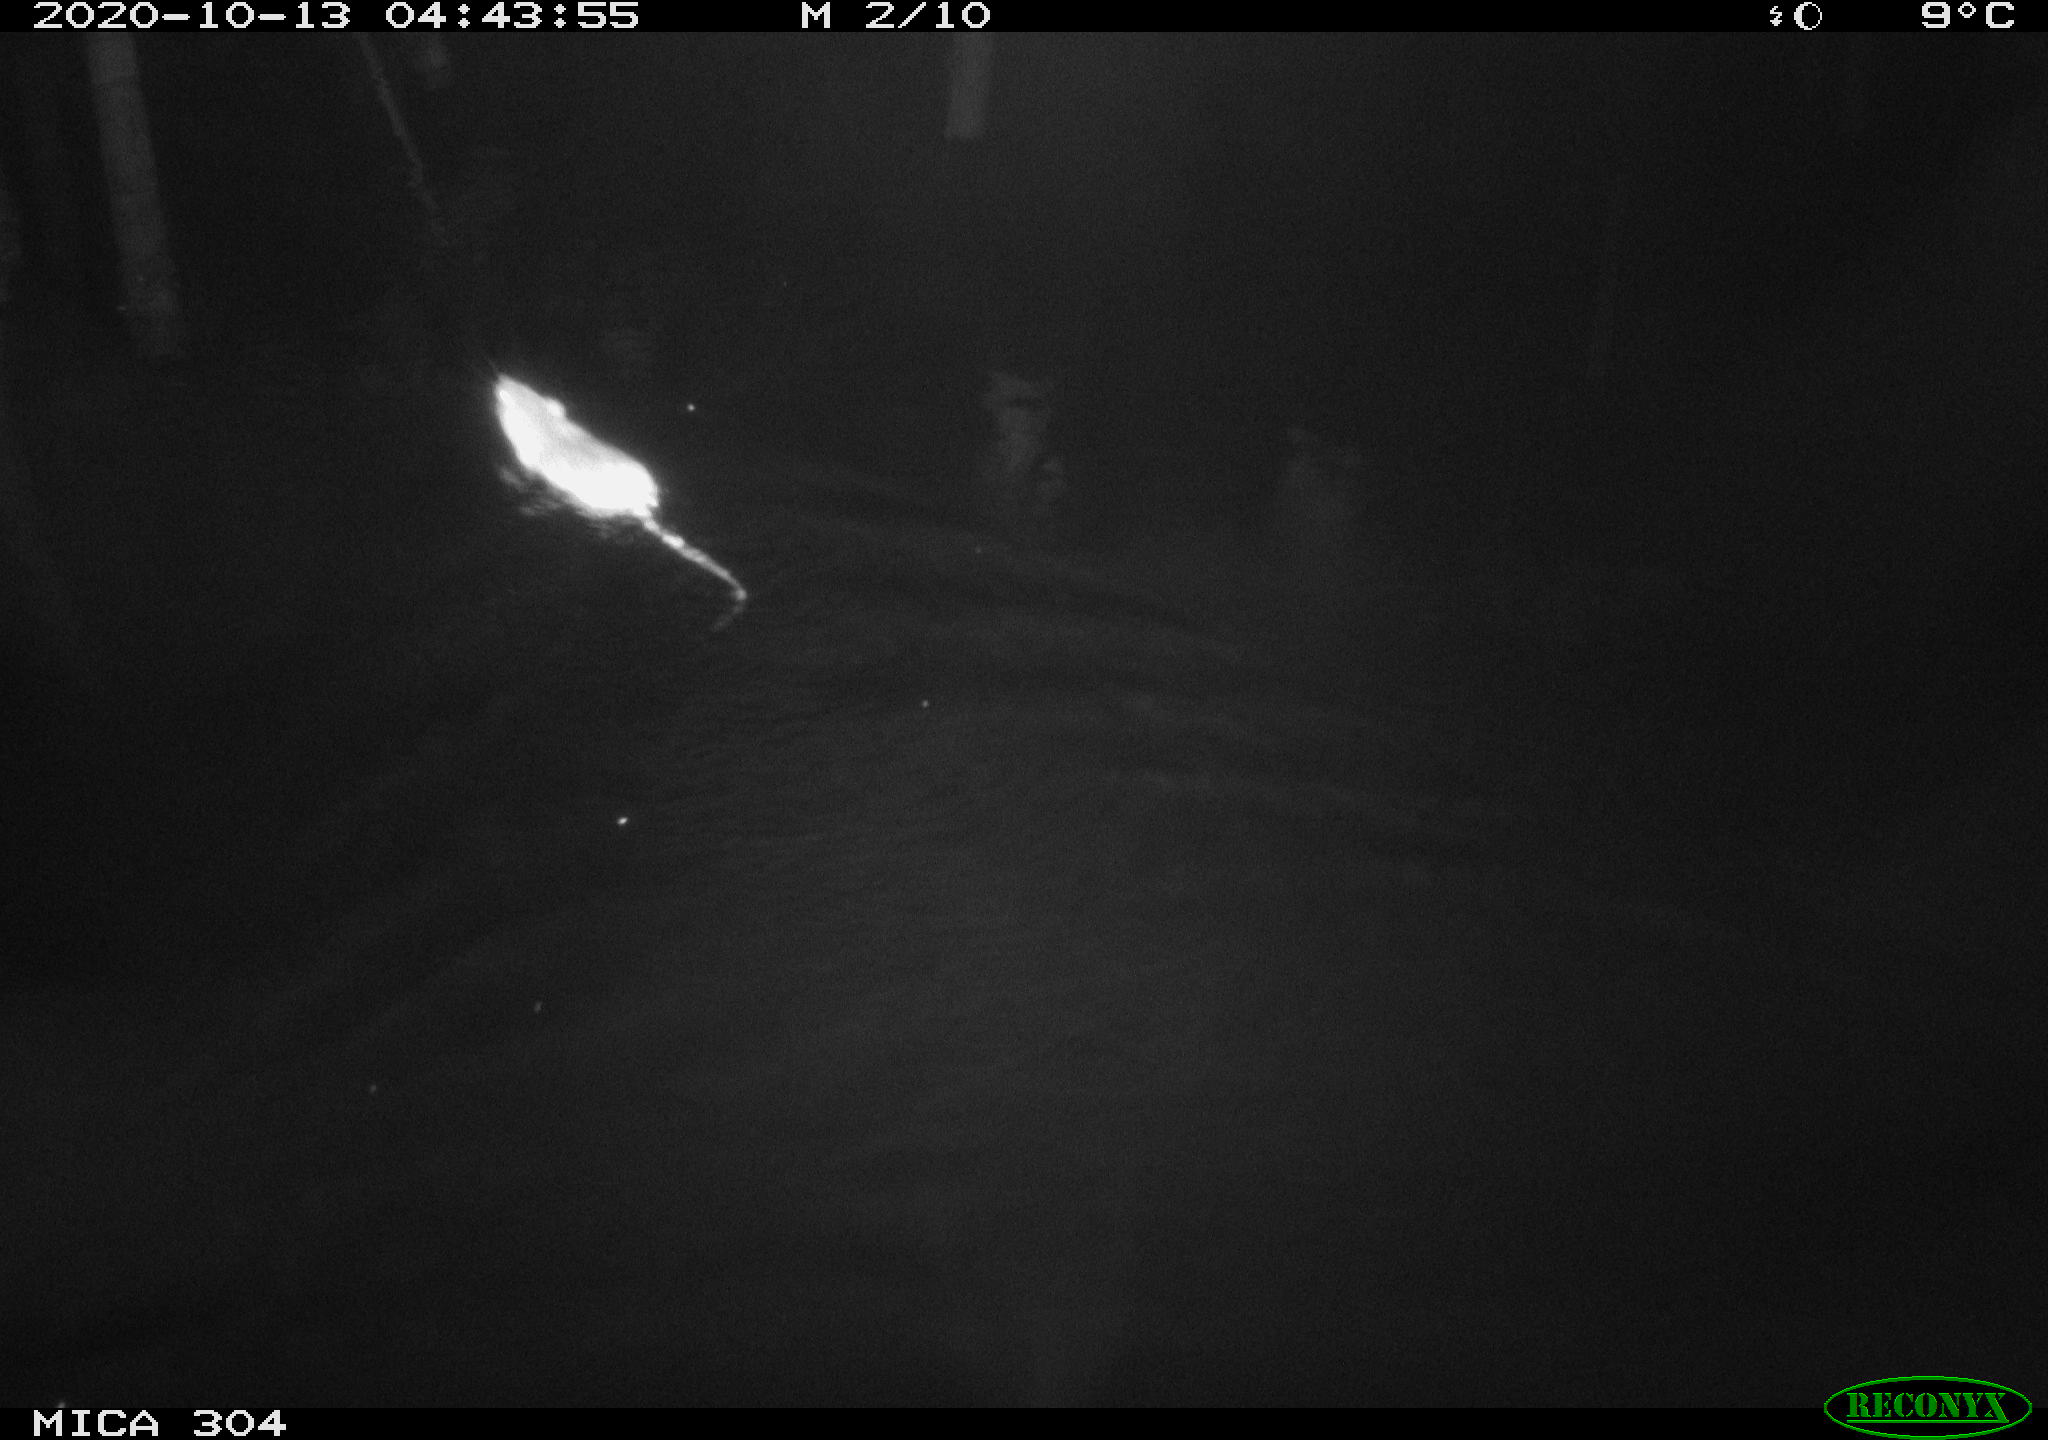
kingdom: Animalia
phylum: Chordata
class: Mammalia
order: Rodentia
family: Muridae
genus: Rattus
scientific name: Rattus norvegicus
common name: Brown rat
